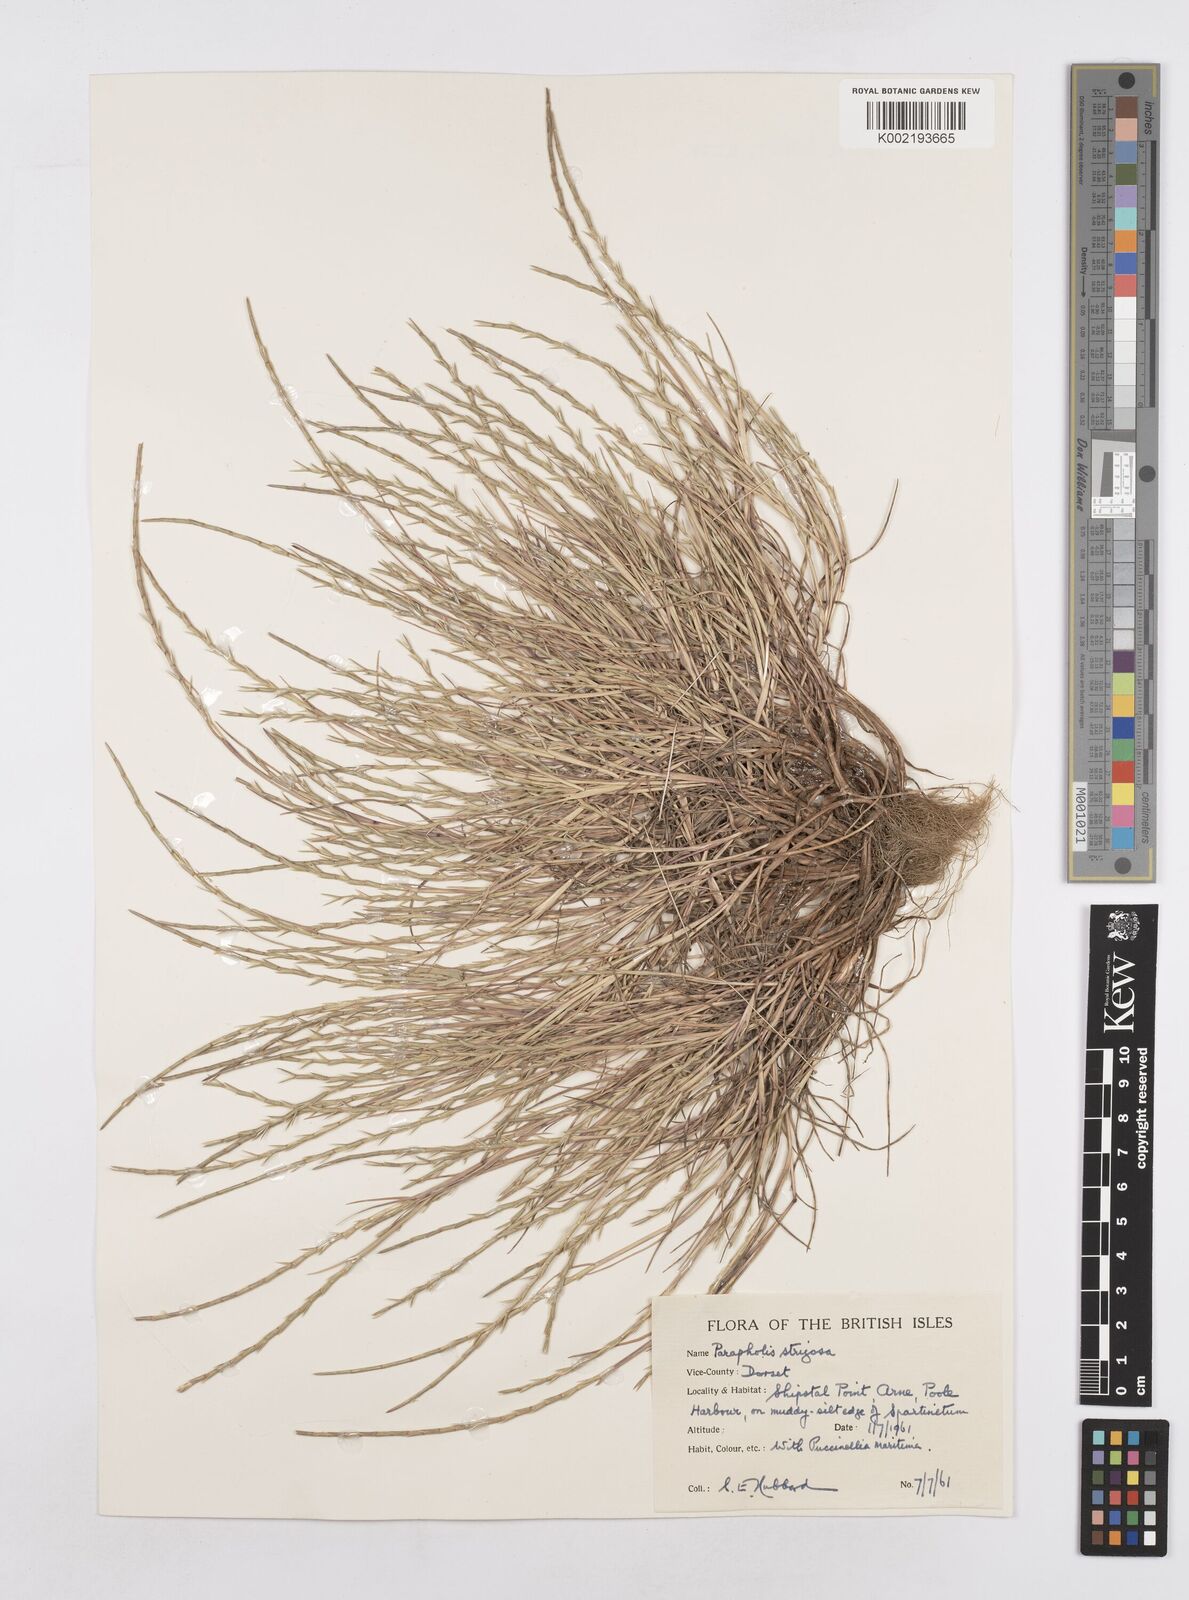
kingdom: Plantae
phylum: Tracheophyta
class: Liliopsida
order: Poales
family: Poaceae
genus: Parapholis
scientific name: Parapholis strigosa
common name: Hard-grass
